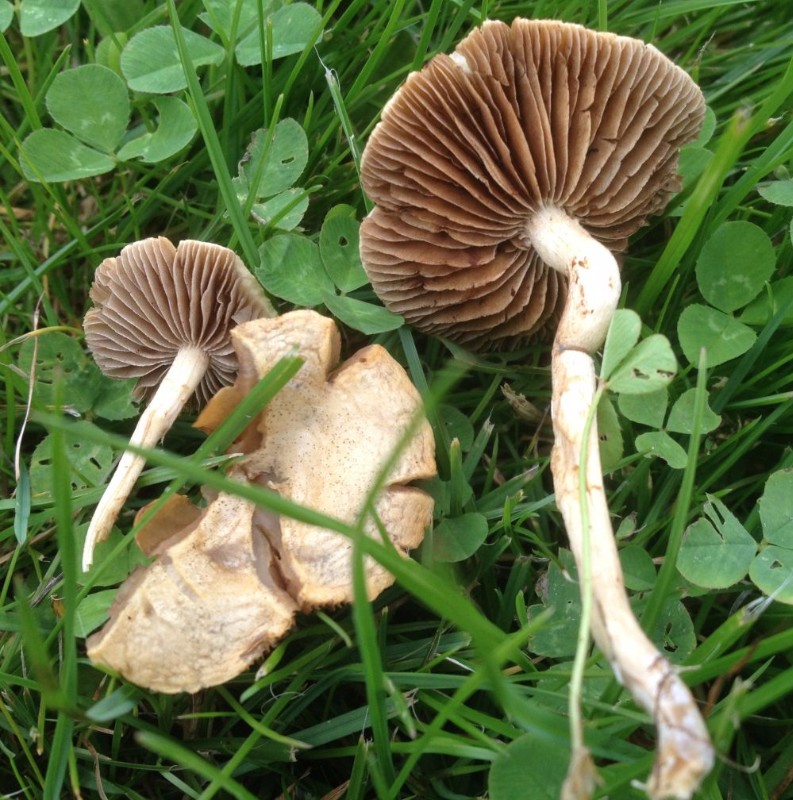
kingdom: Fungi
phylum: Basidiomycota
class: Agaricomycetes
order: Agaricales
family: Strophariaceae
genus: Agrocybe
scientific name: Agrocybe pediades
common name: almindelig agerhat
